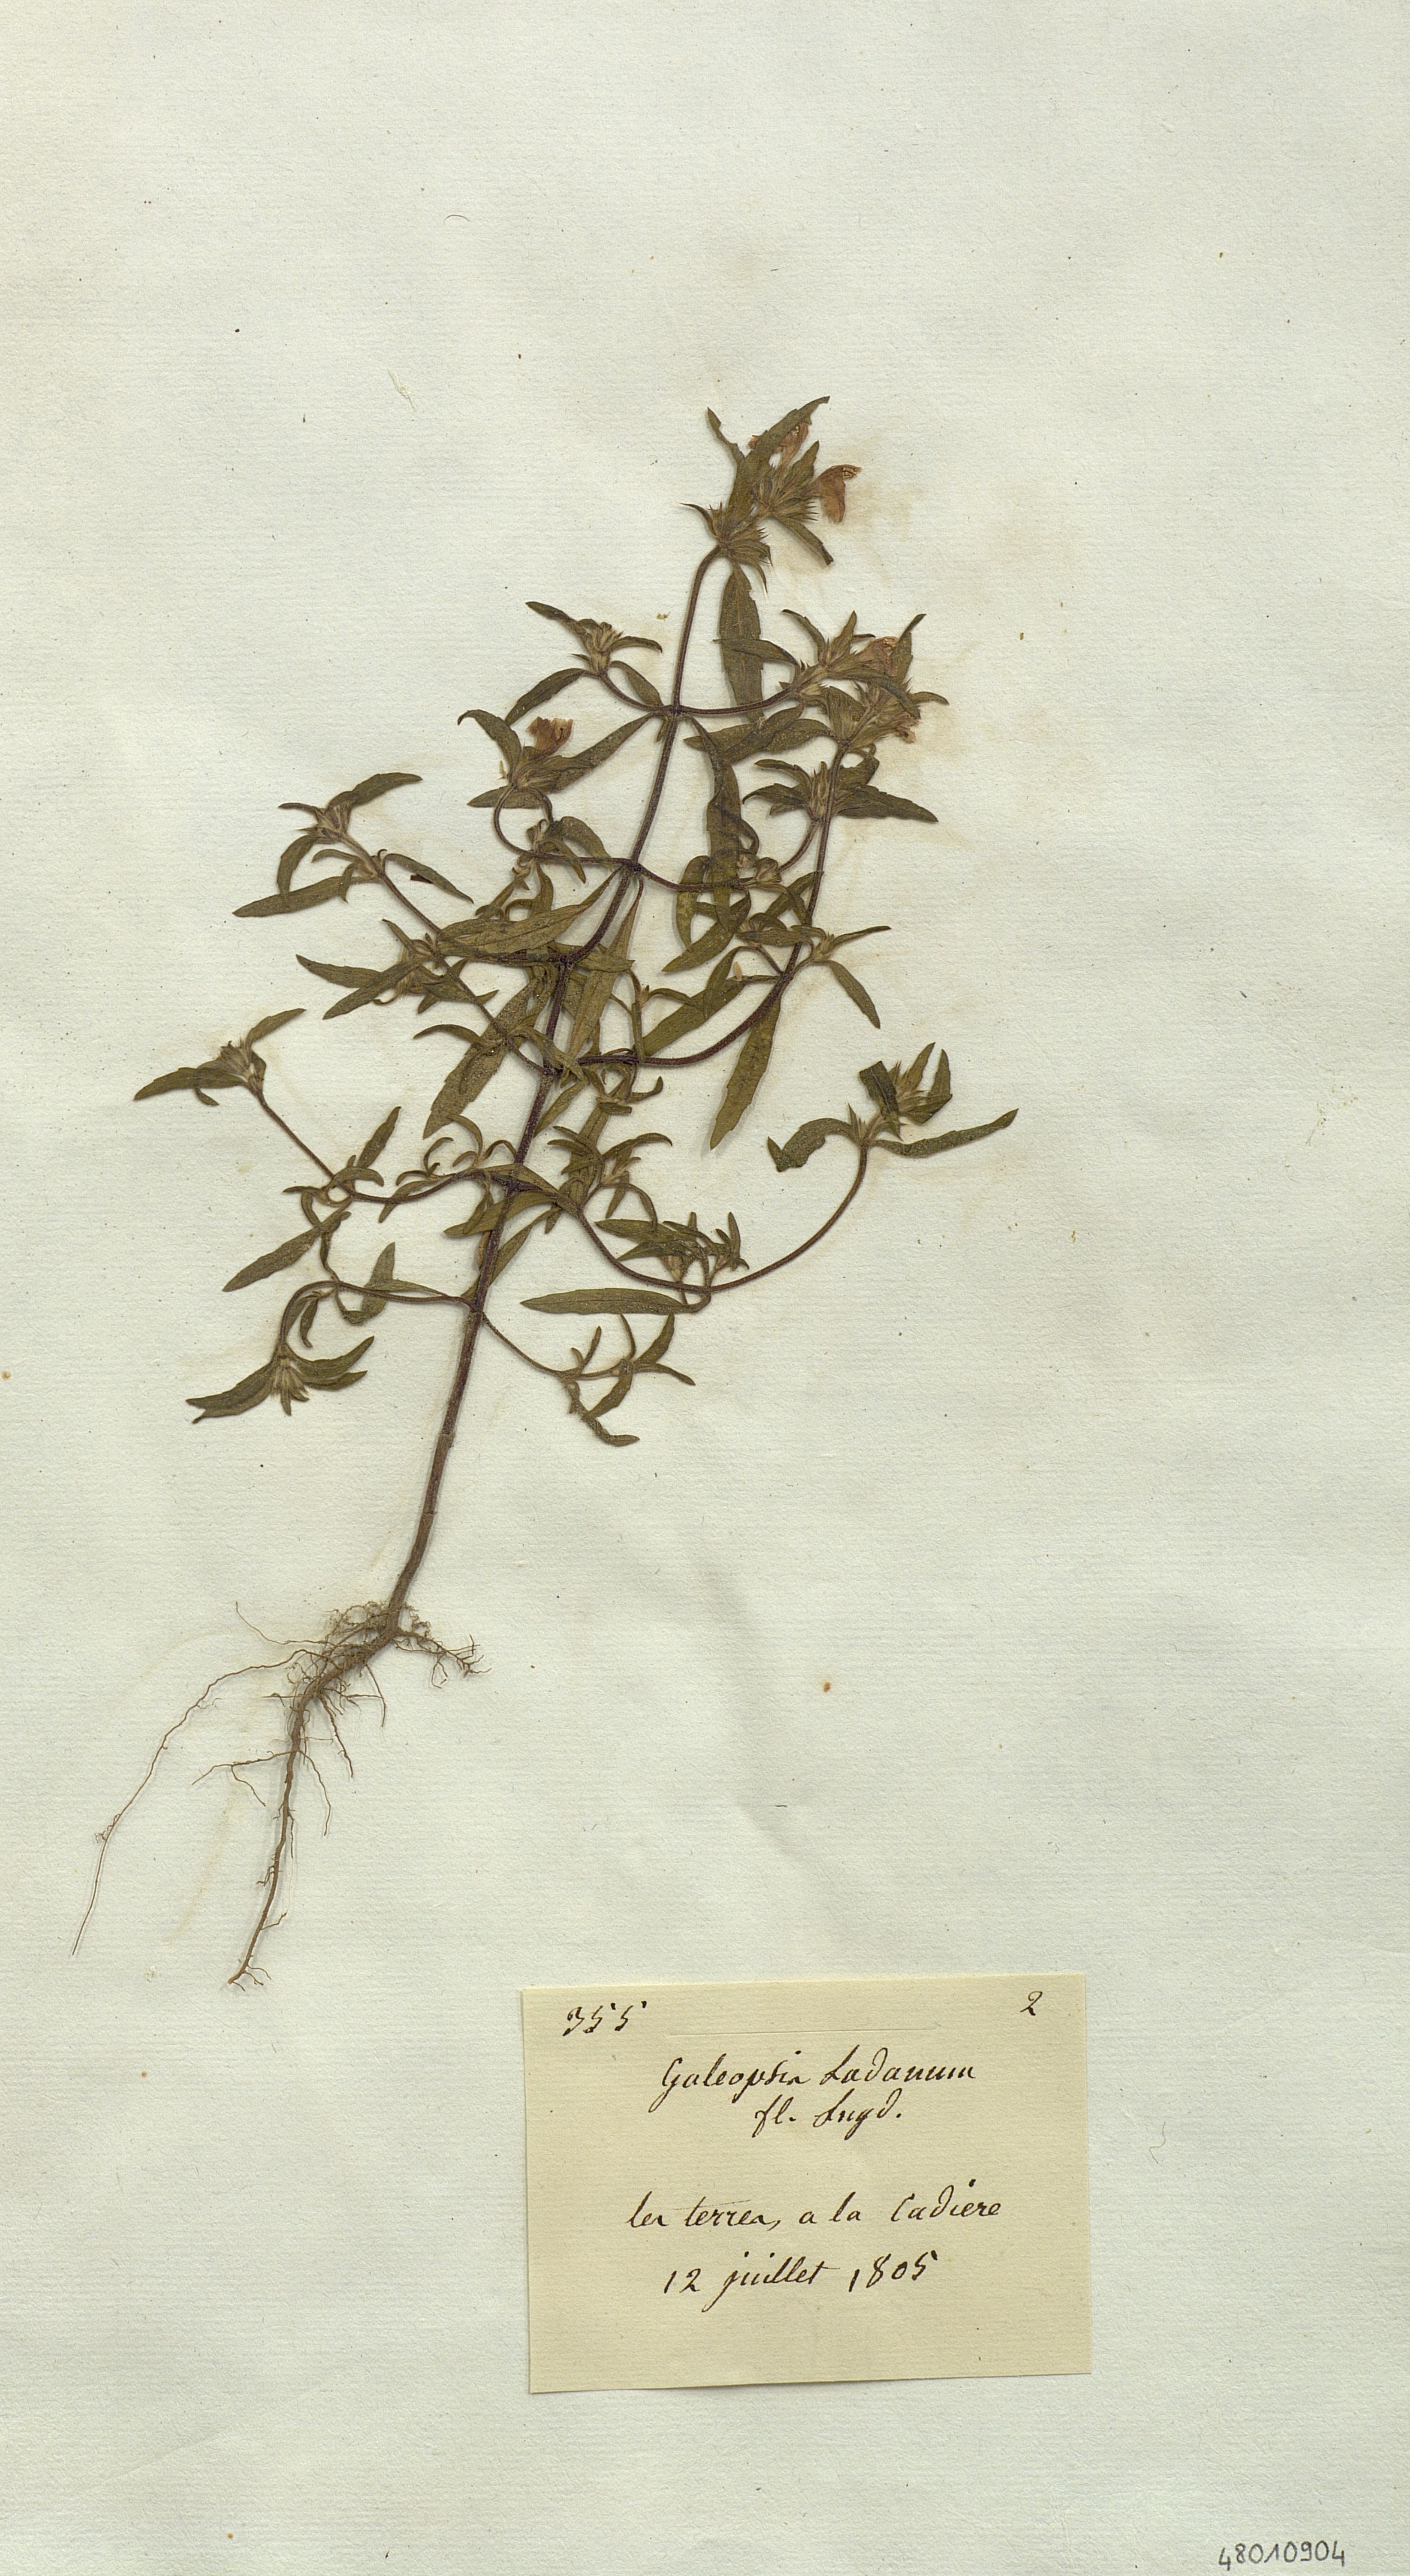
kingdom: Plantae
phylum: Tracheophyta
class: Magnoliopsida
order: Lamiales
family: Lamiaceae
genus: Galeopsis
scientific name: Galeopsis ladanum
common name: Broad-leaved hemp-nettle
